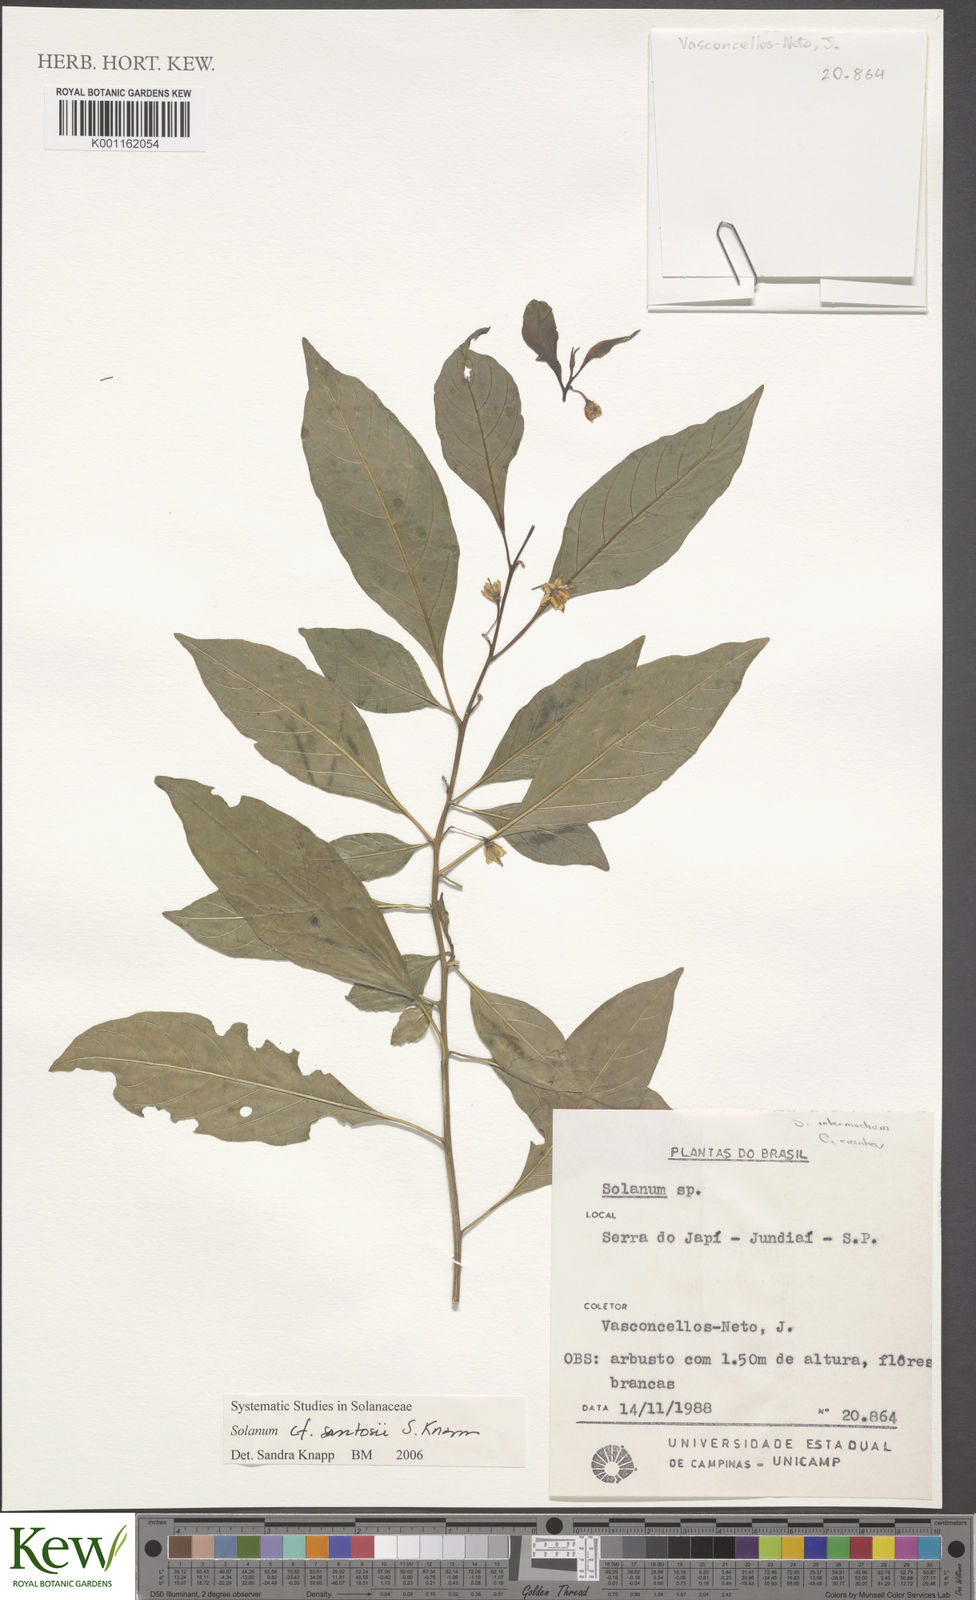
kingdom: Plantae
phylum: Tracheophyta
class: Magnoliopsida
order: Solanales
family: Solanaceae
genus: Solanum
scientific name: Solanum santosii
